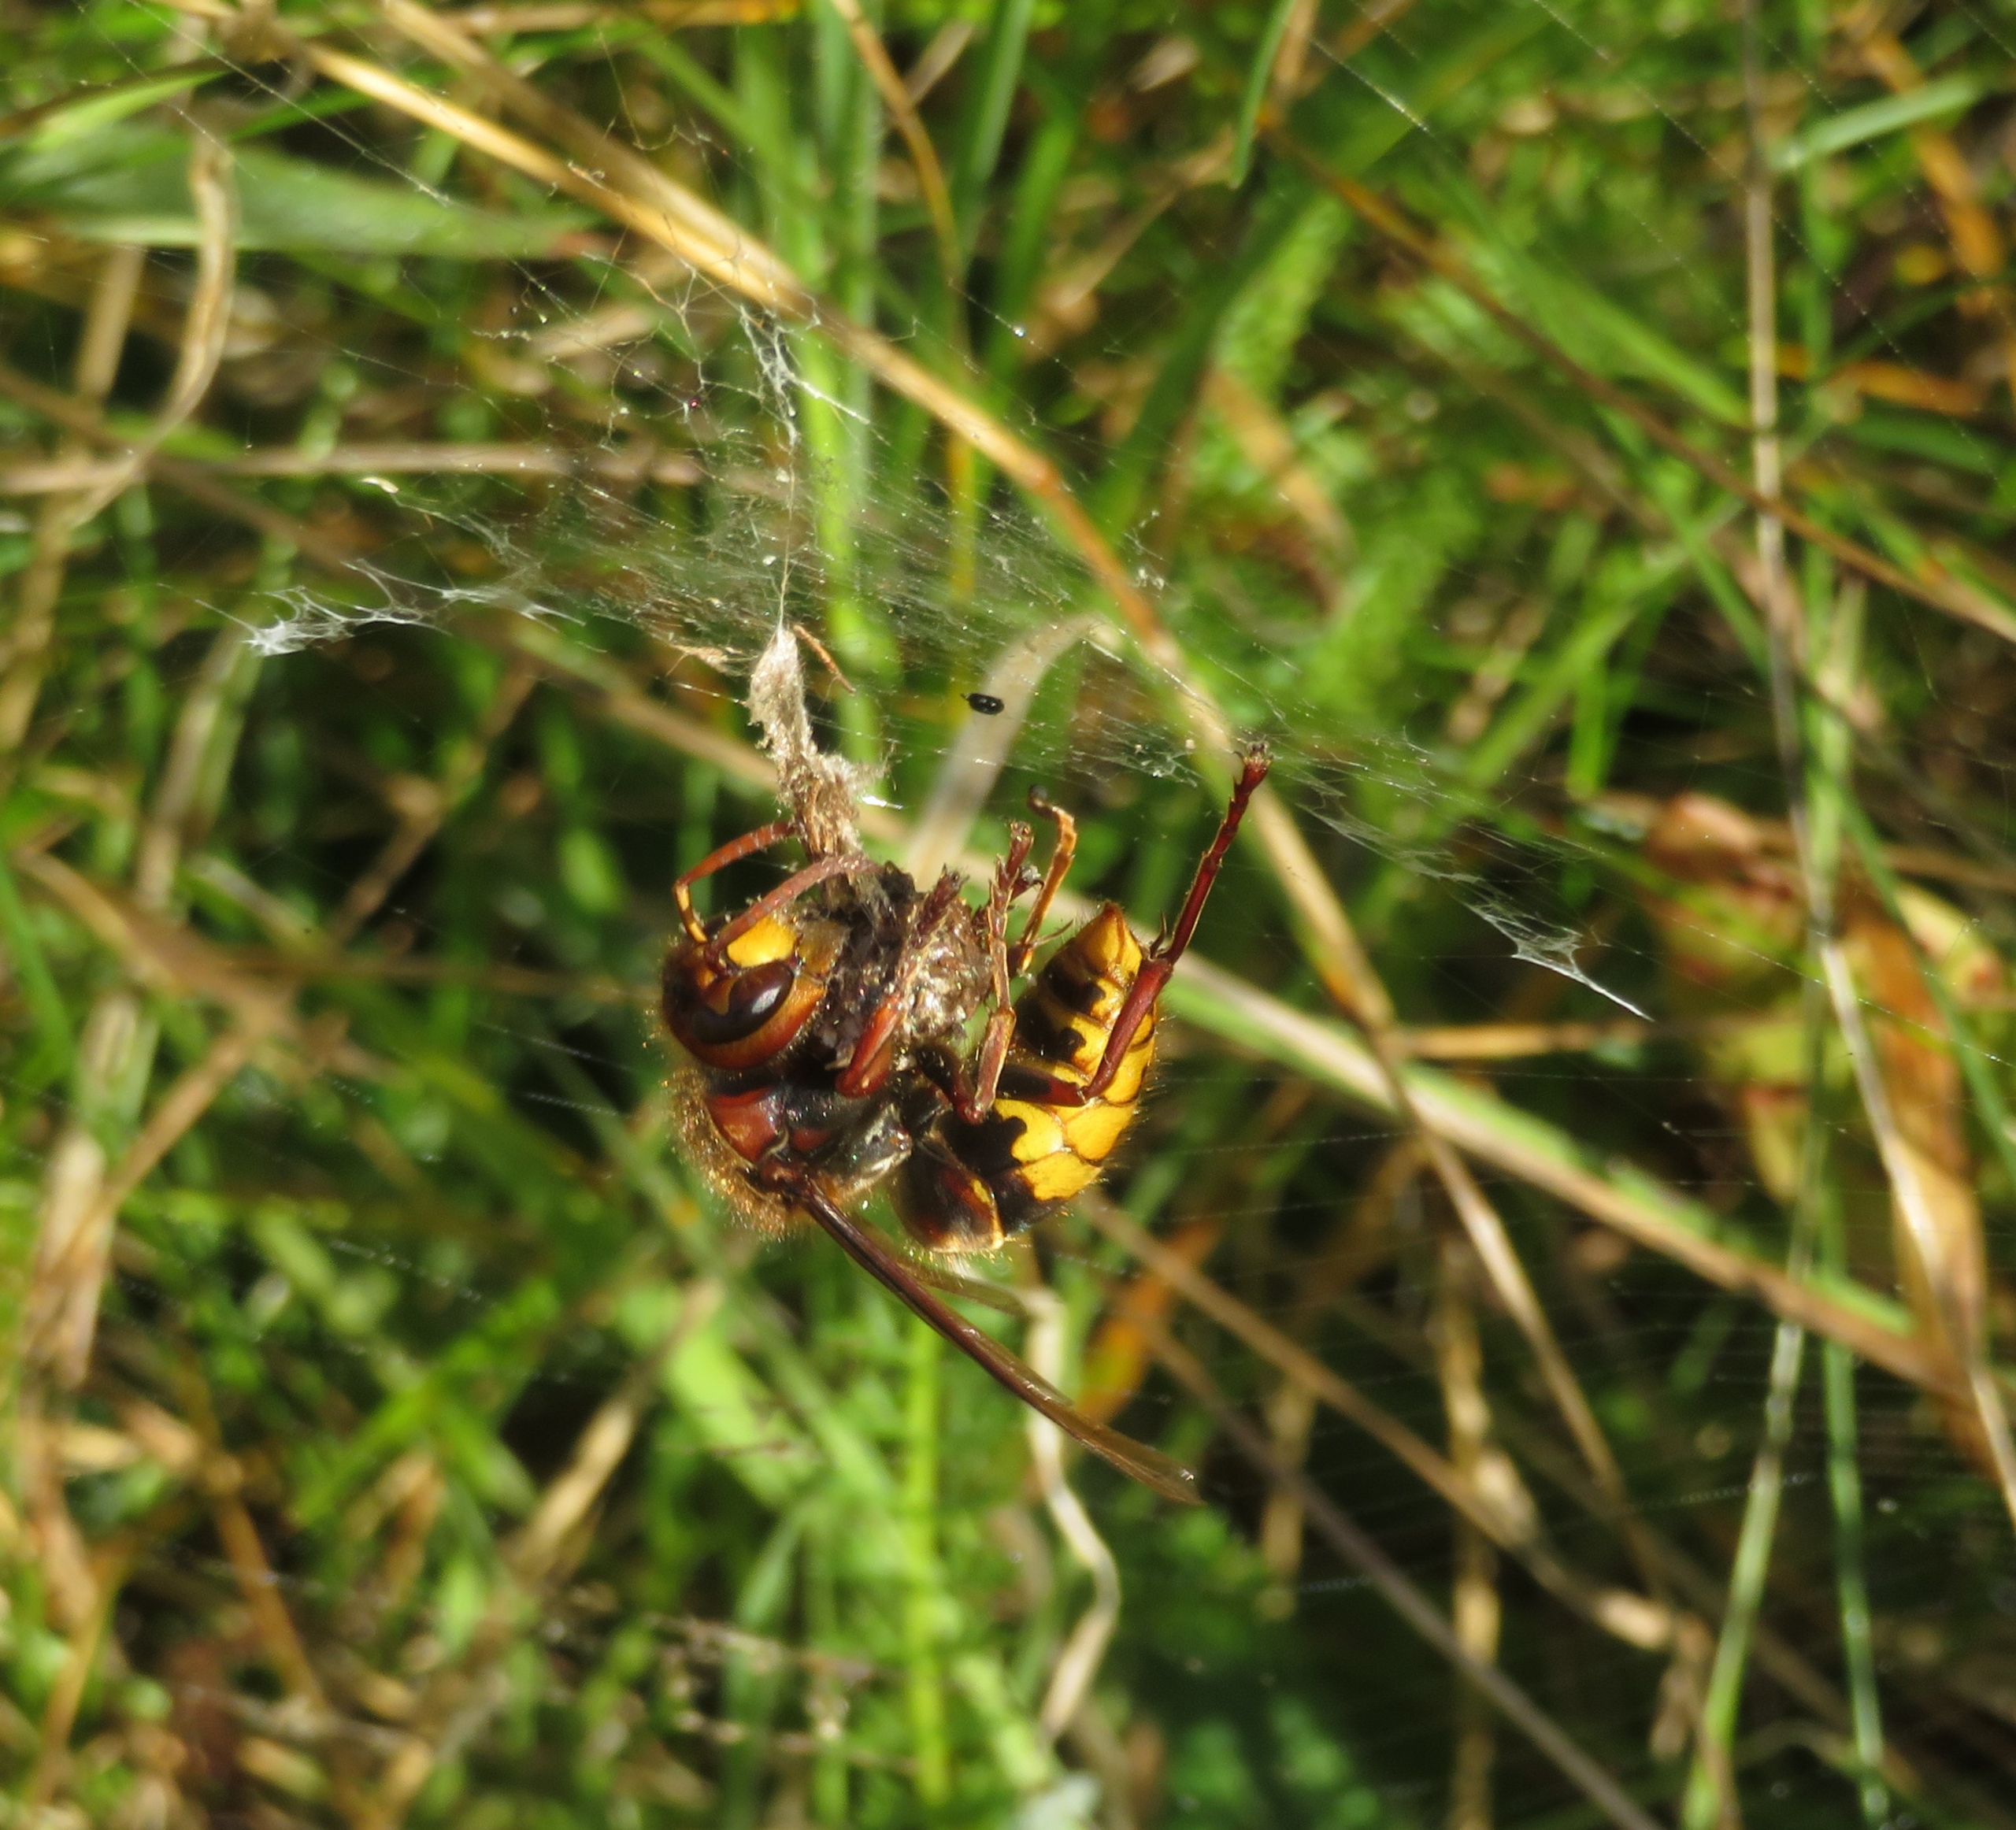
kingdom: Animalia
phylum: Arthropoda
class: Insecta
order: Hymenoptera
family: Vespidae
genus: Vespa
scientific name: Vespa crabro
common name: Stor gedehams
